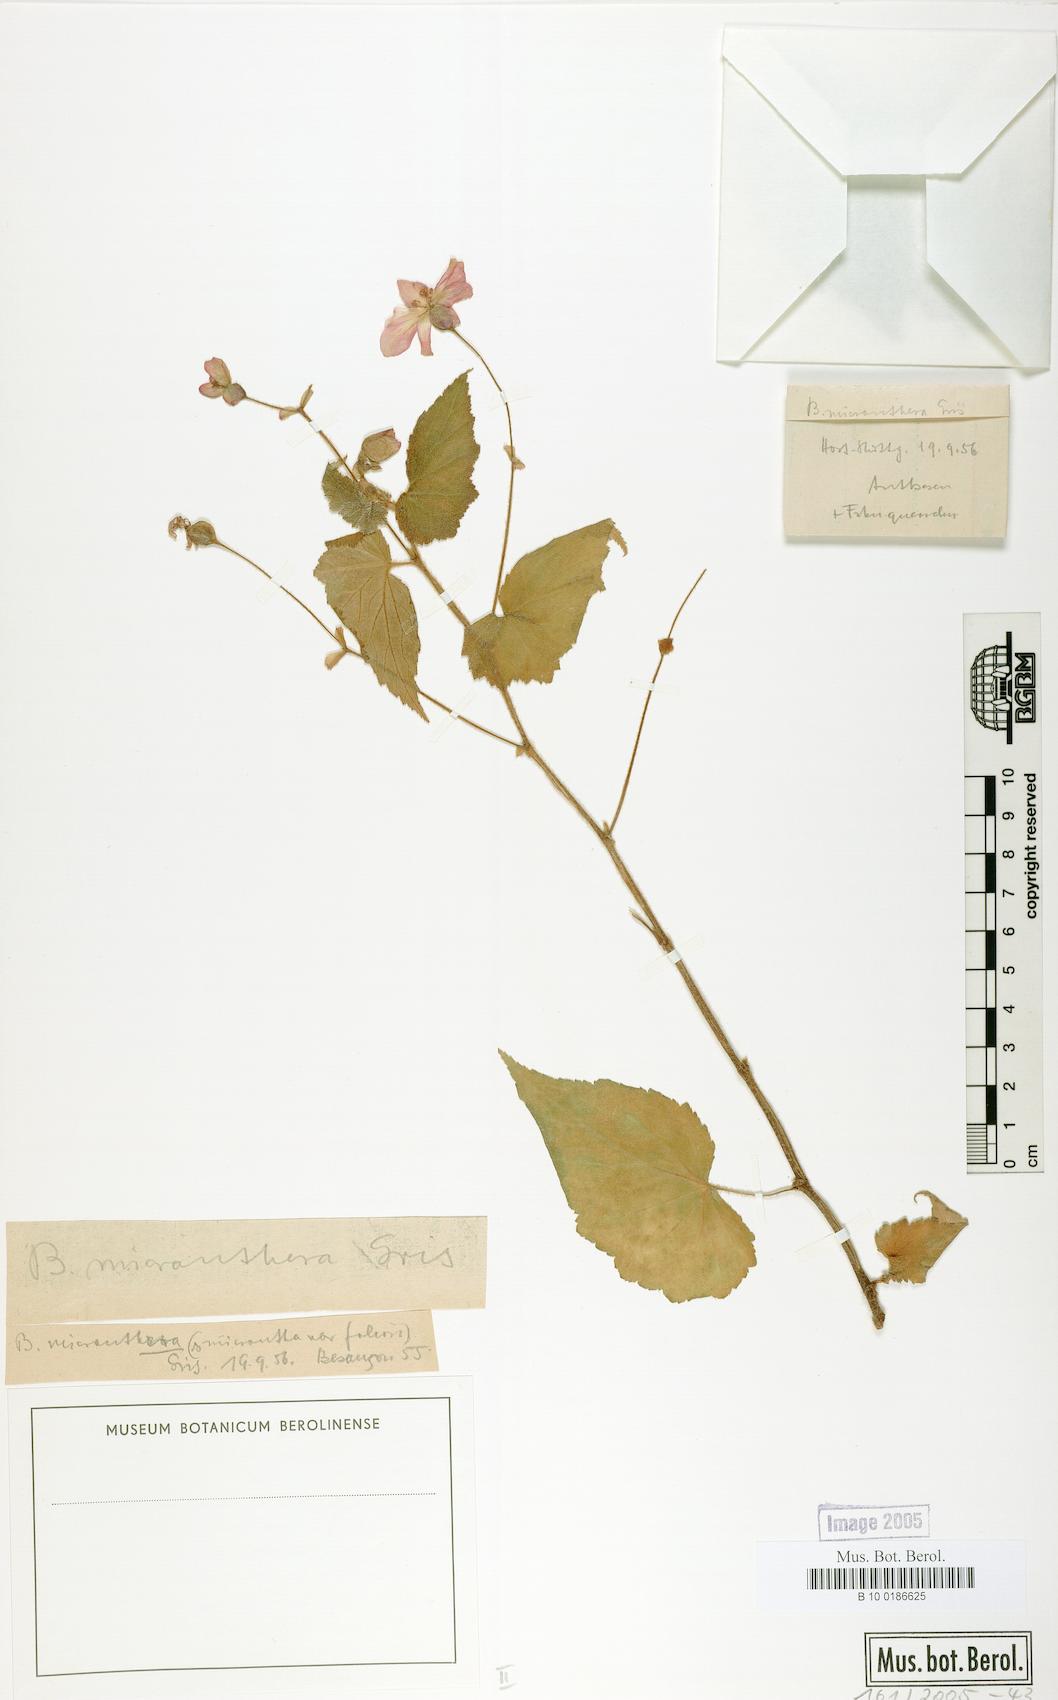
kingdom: Plantae
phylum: Tracheophyta
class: Magnoliopsida
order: Cucurbitales
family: Begoniaceae
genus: Begonia
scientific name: Begonia micranthera
